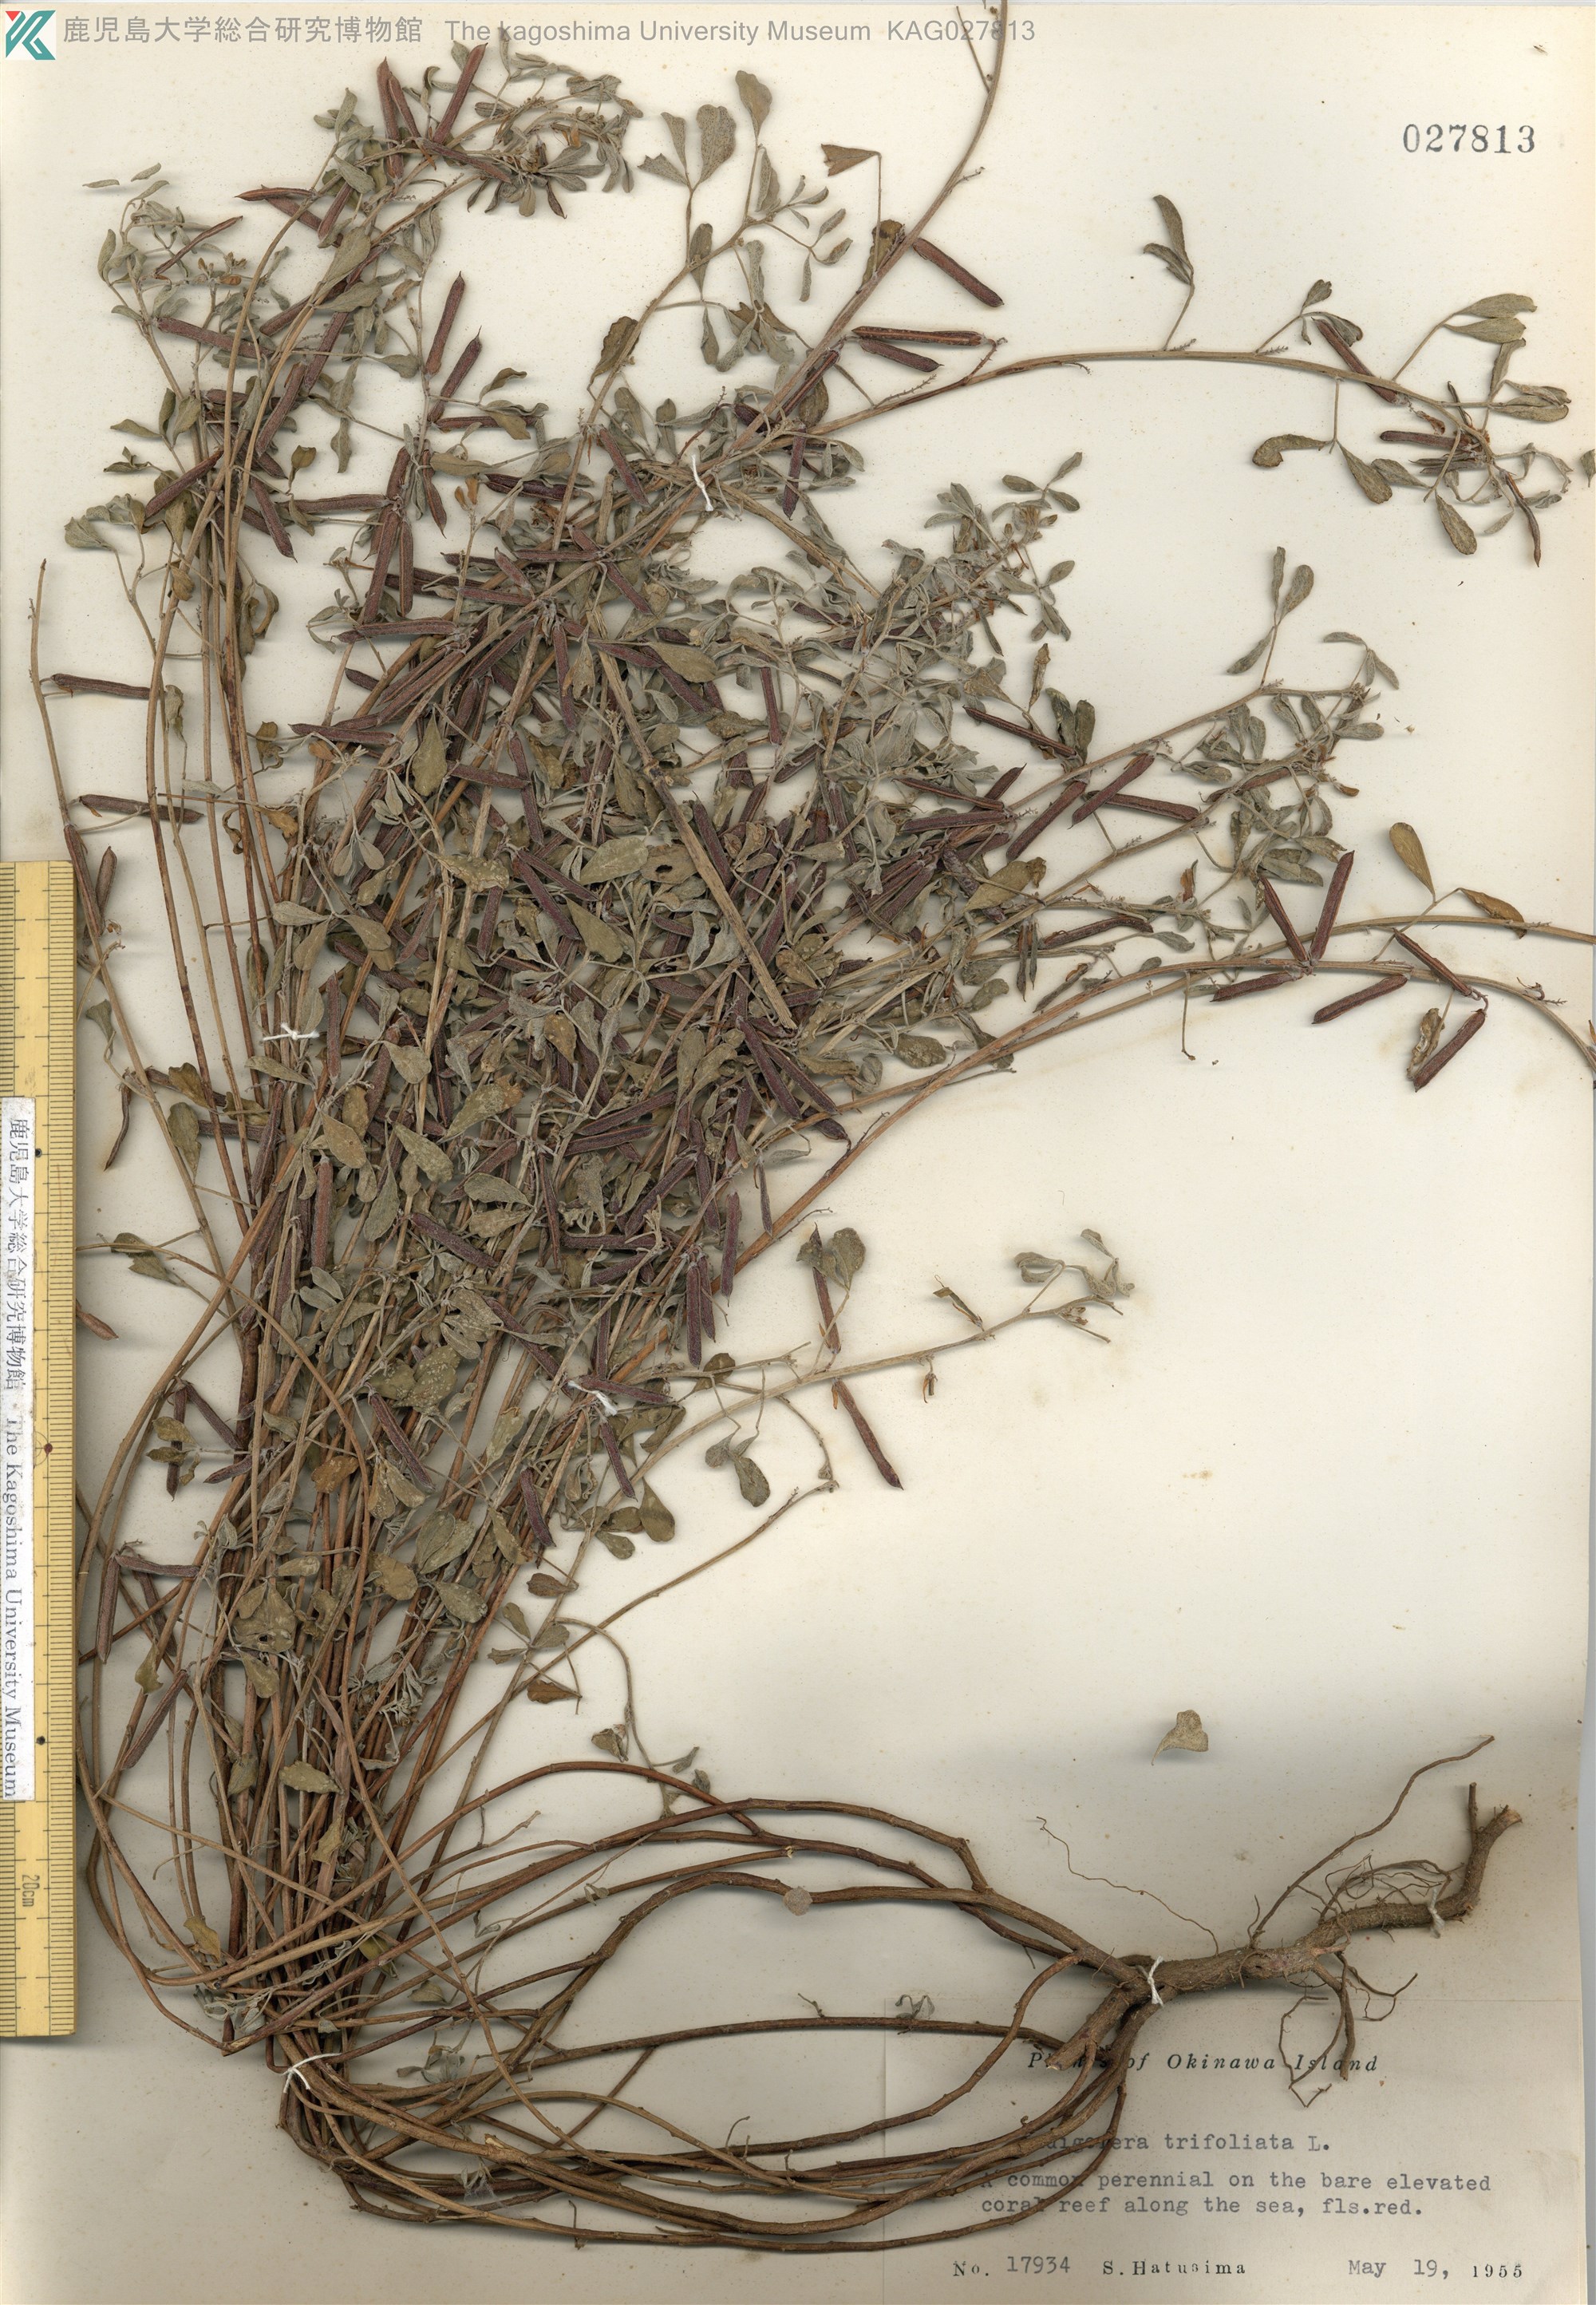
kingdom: Plantae
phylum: Tracheophyta
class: Magnoliopsida
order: Fabales
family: Fabaceae
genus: Indigofera
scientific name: Indigofera trifoliata
